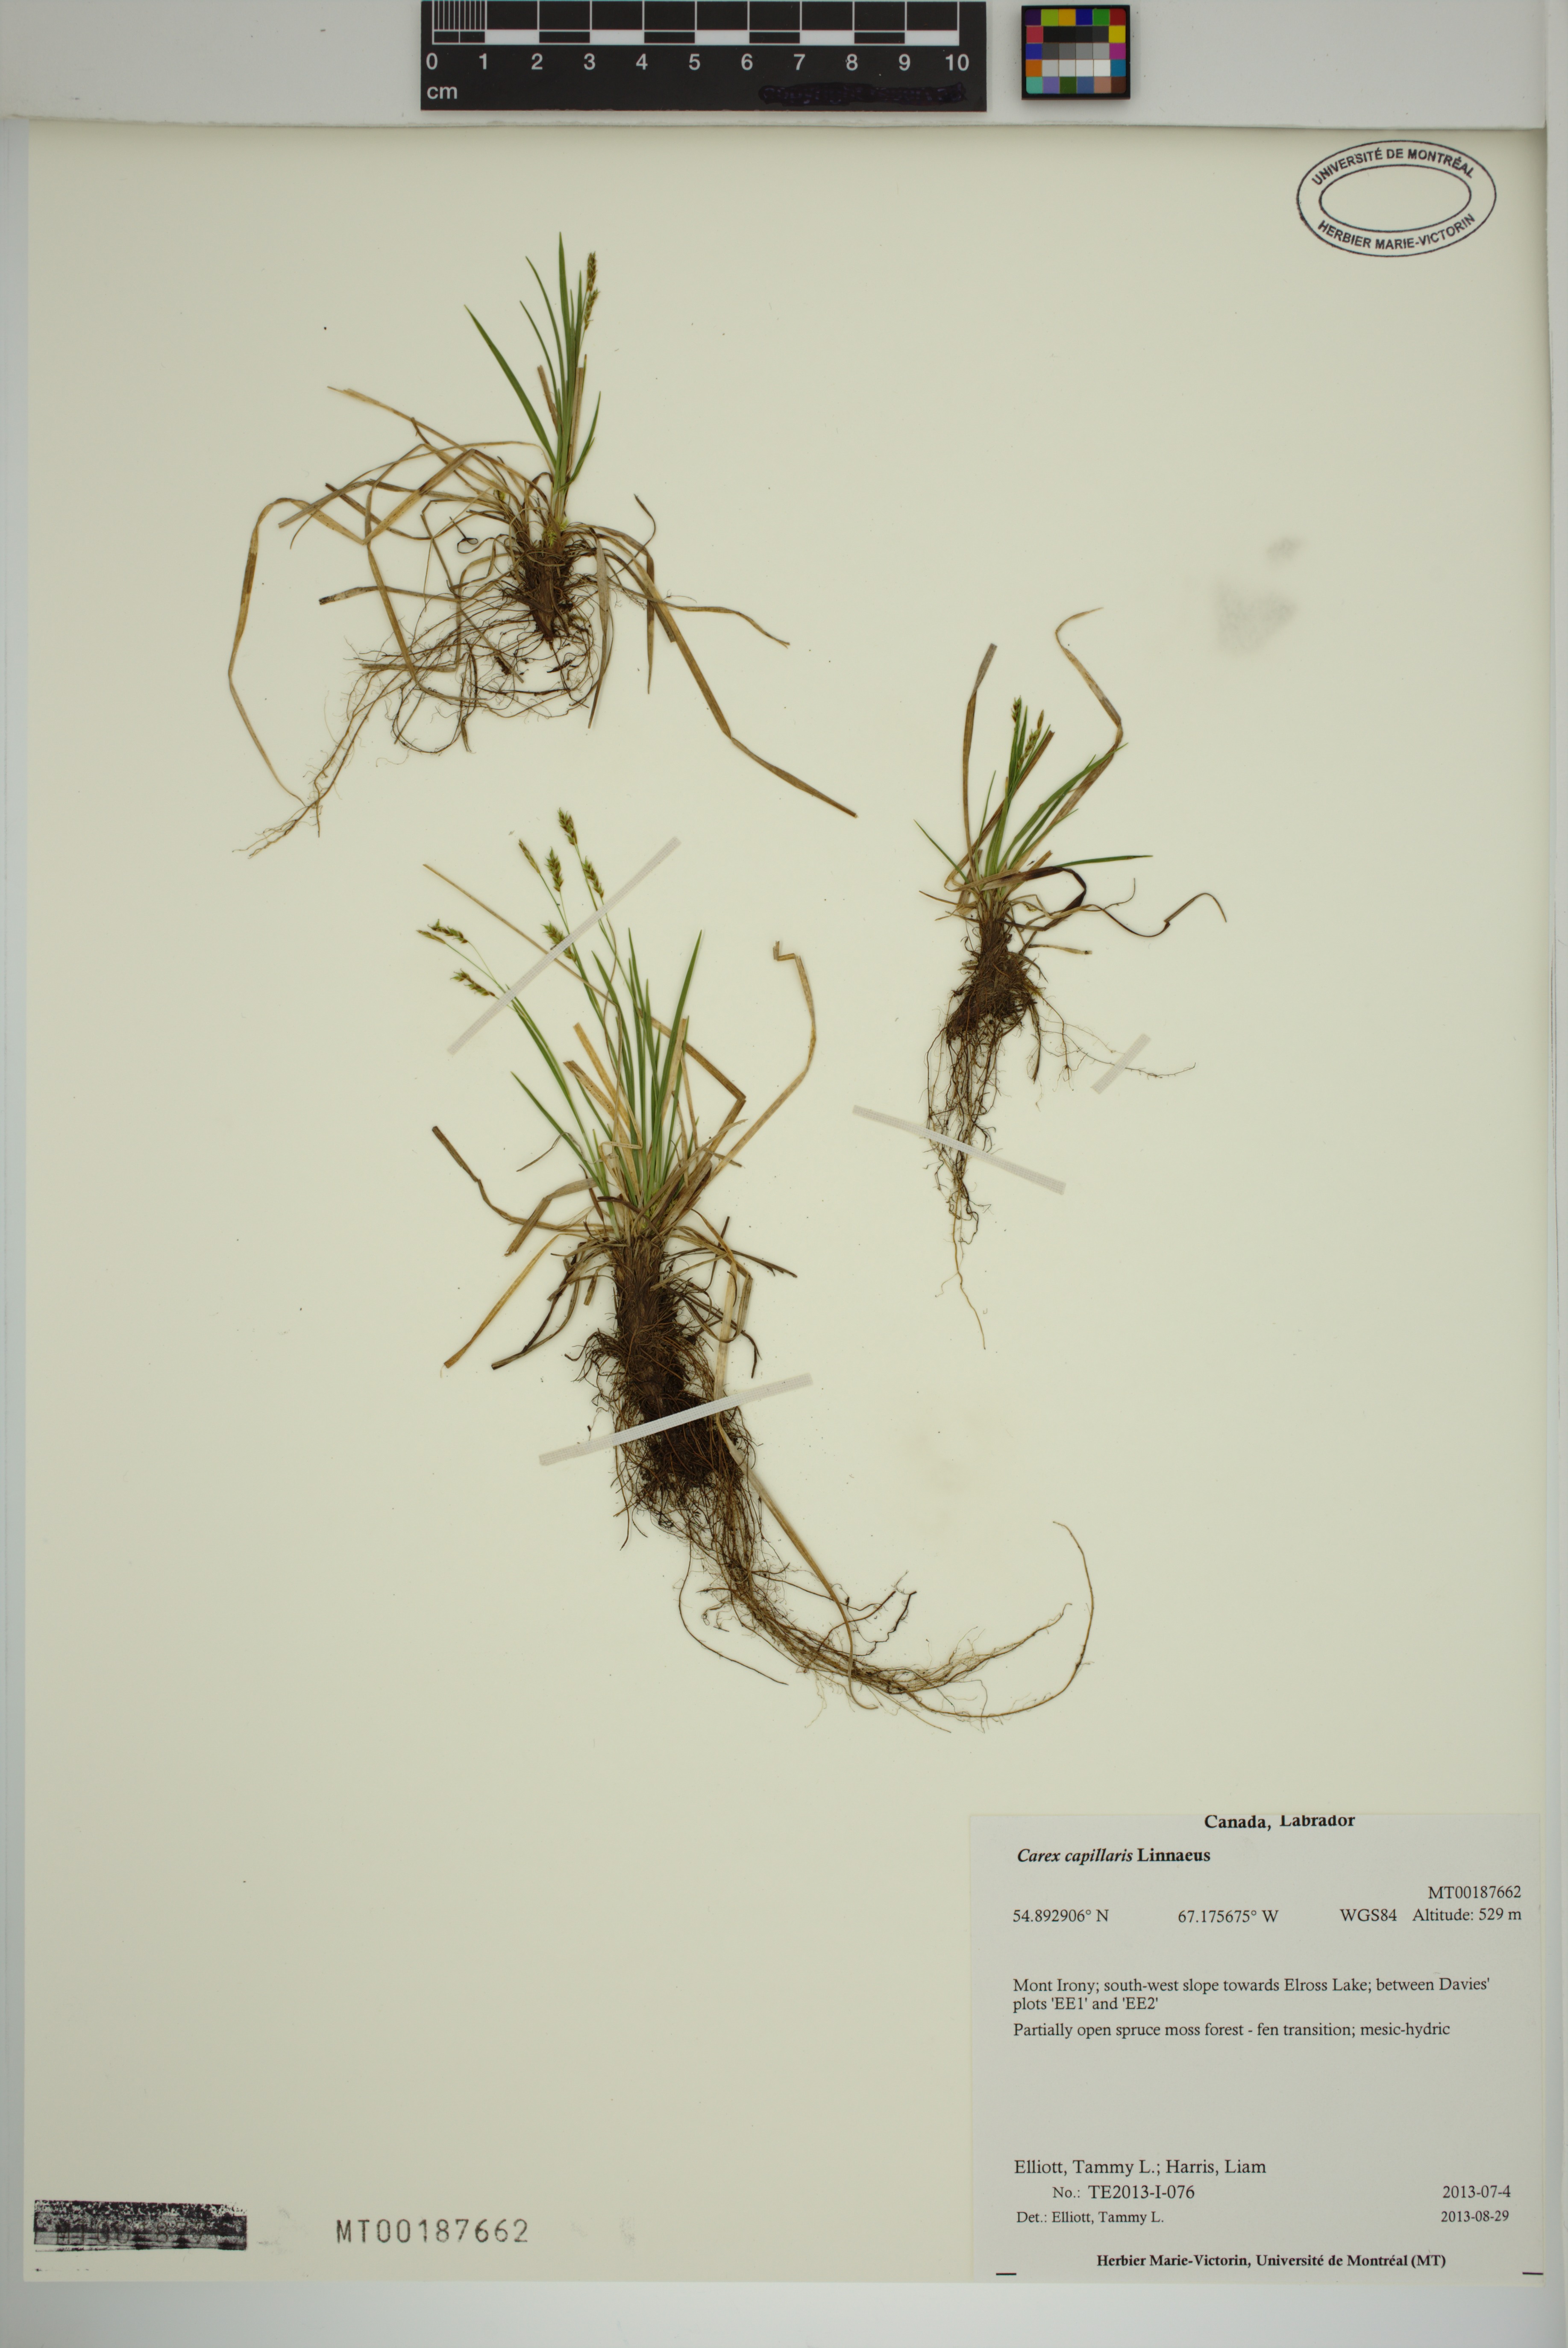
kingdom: Plantae
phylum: Tracheophyta
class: Liliopsida
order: Poales
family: Cyperaceae
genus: Carex
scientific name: Carex capillaris
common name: Hair sedge
